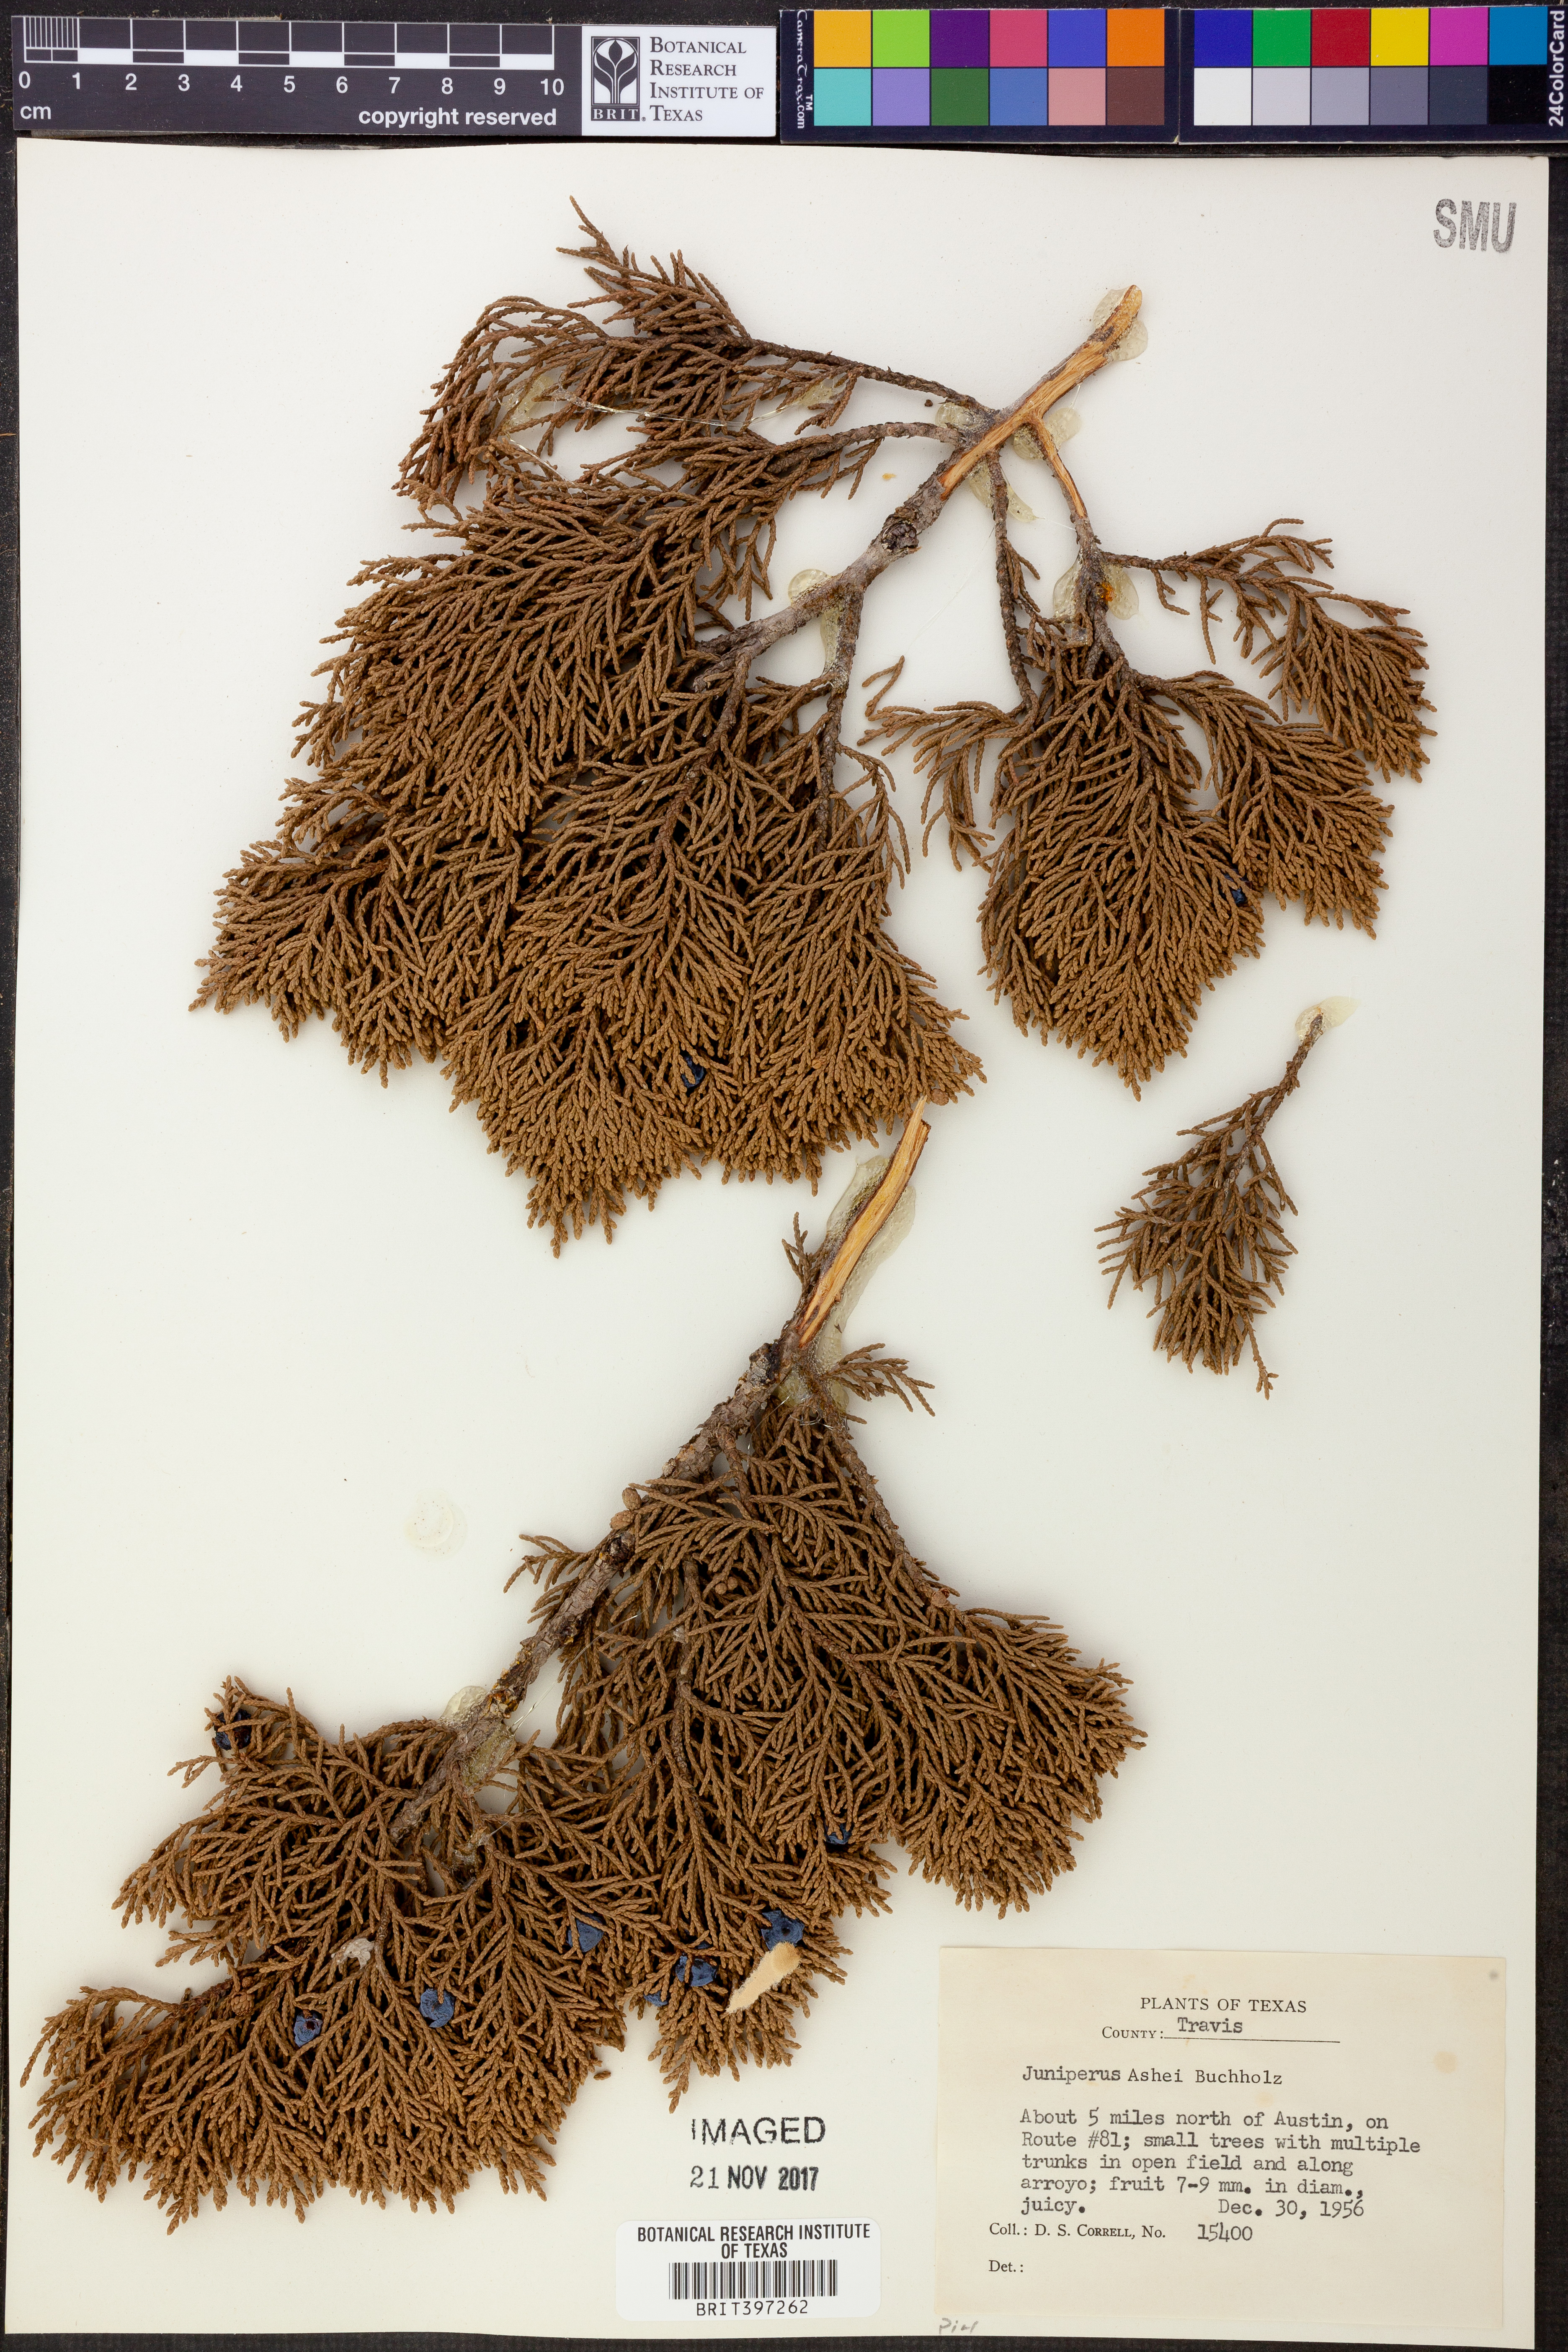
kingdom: Plantae
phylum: Tracheophyta
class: Pinopsida
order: Pinales
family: Cupressaceae
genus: Juniperus
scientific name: Juniperus ashei
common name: Mexican juniper
